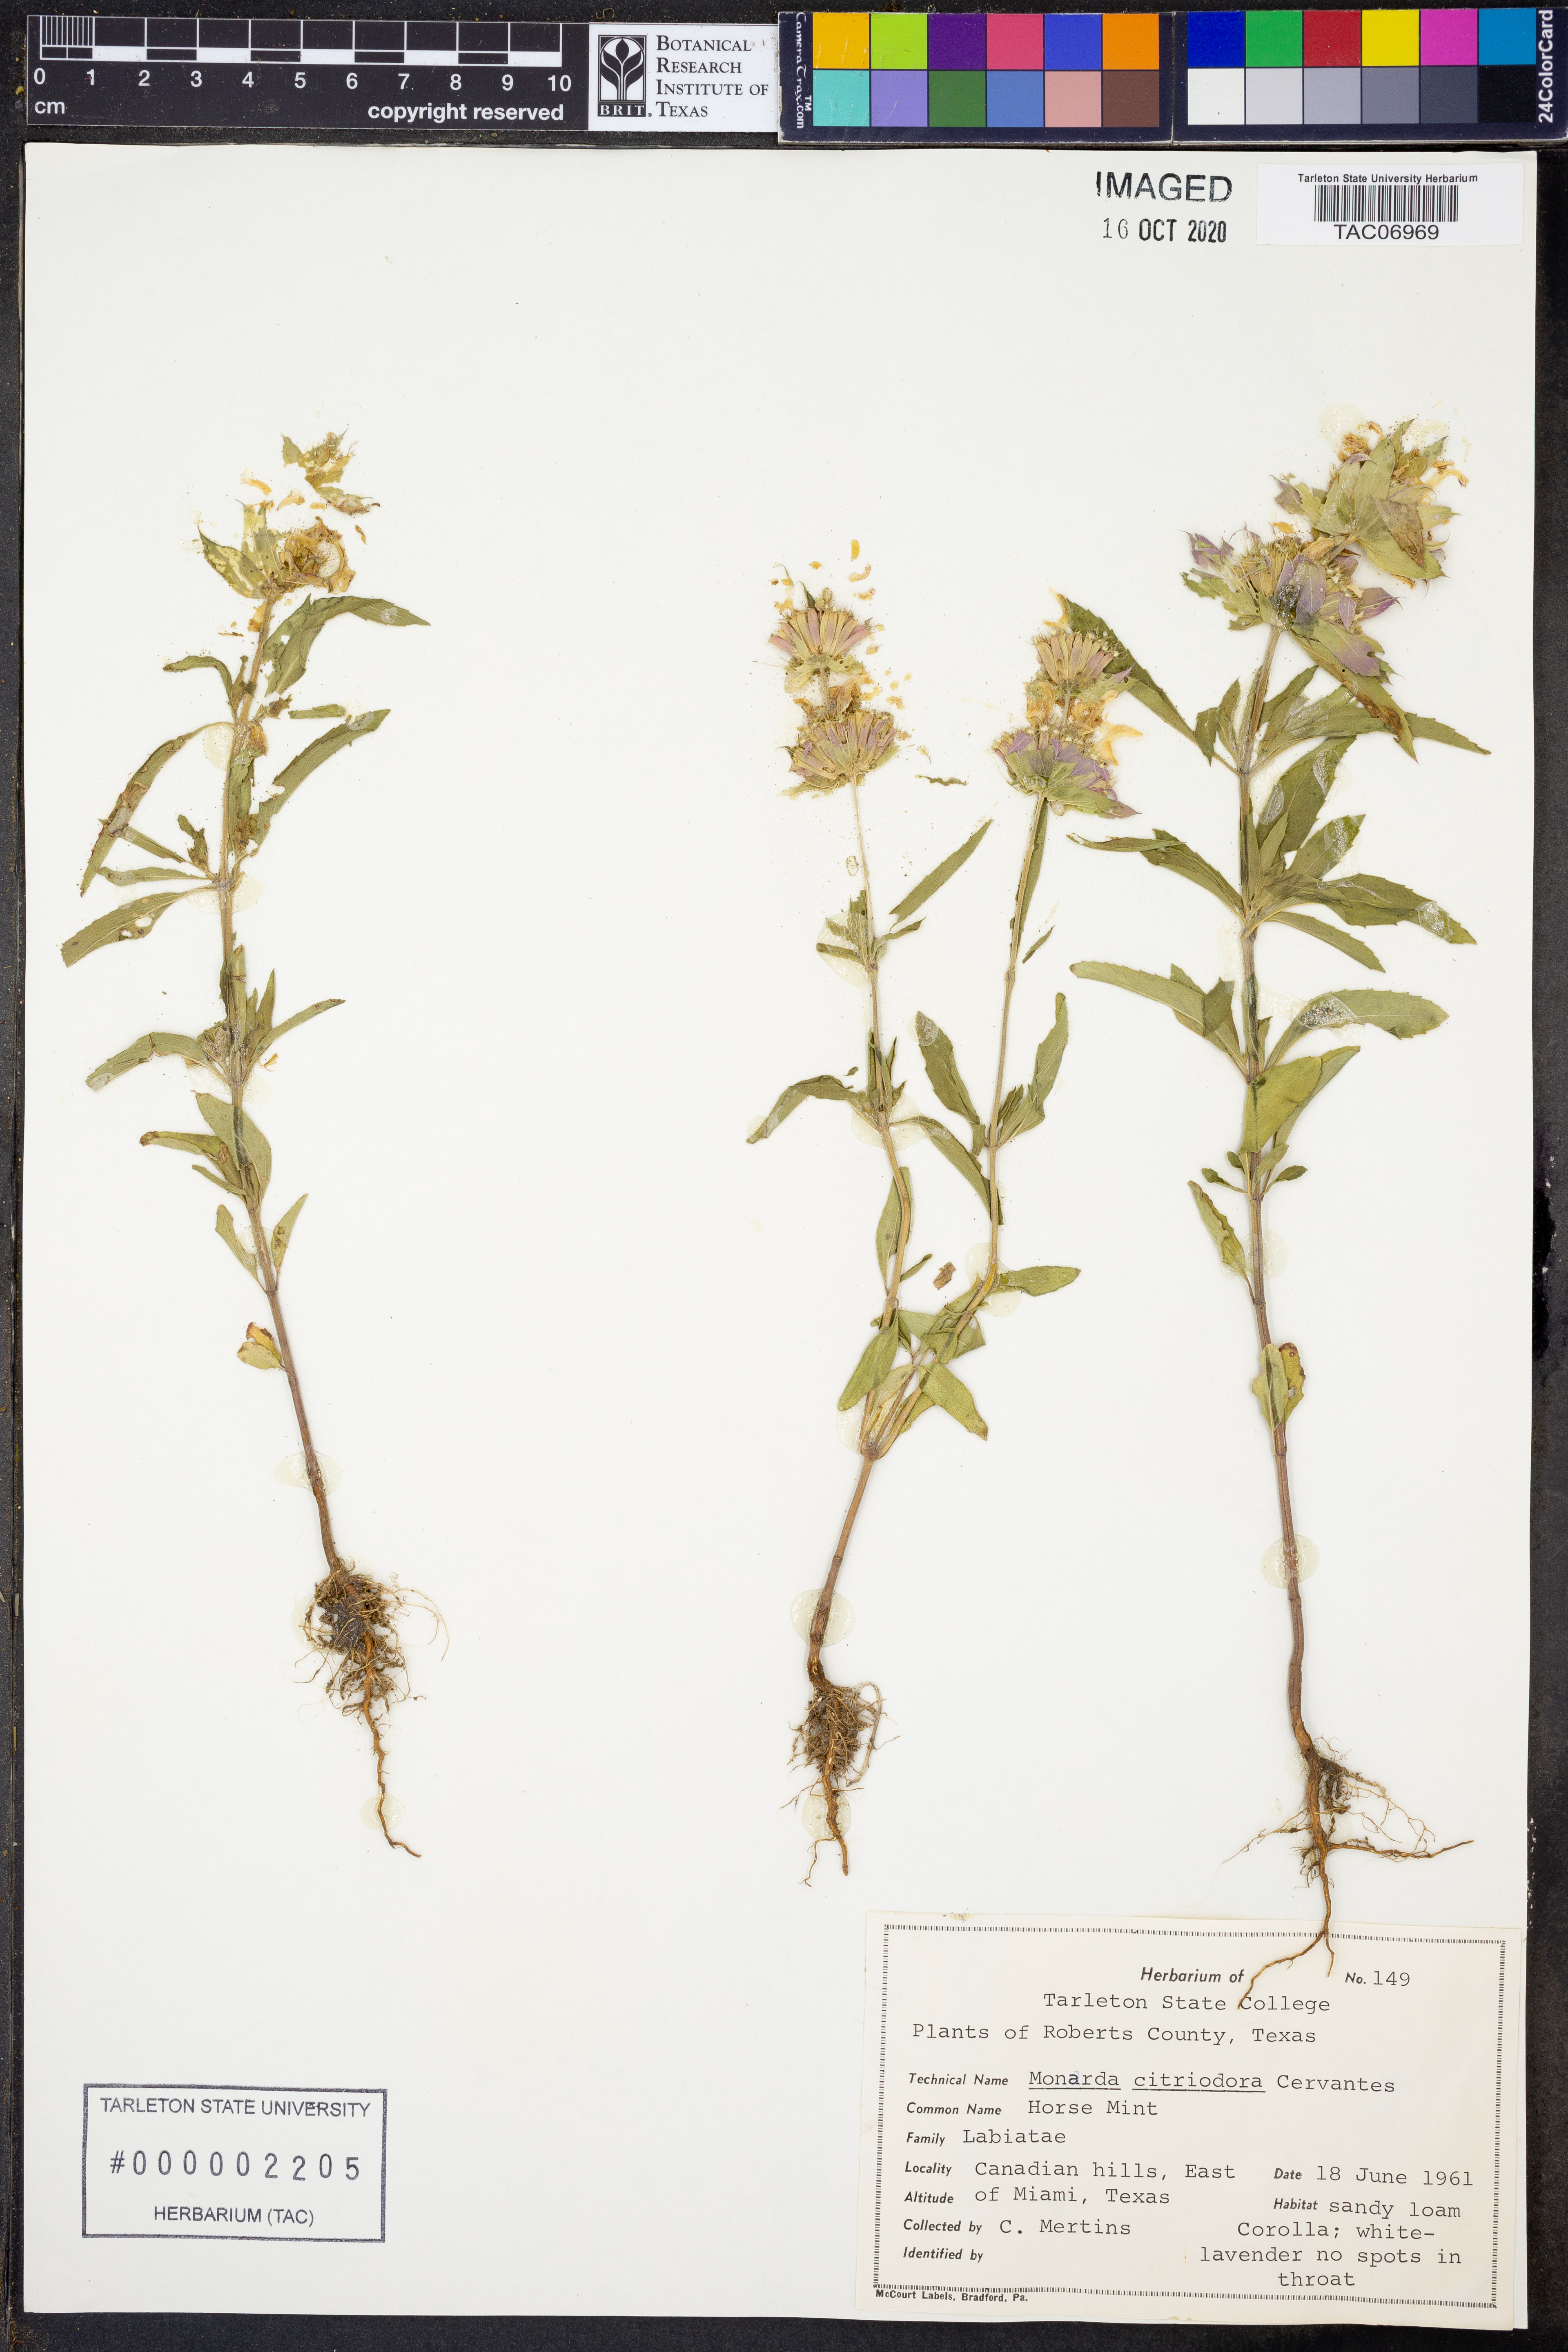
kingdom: Plantae
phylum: Tracheophyta
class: Magnoliopsida
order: Lamiales
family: Lamiaceae
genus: Monarda
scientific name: Monarda citriodora
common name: Lemon beebalm
